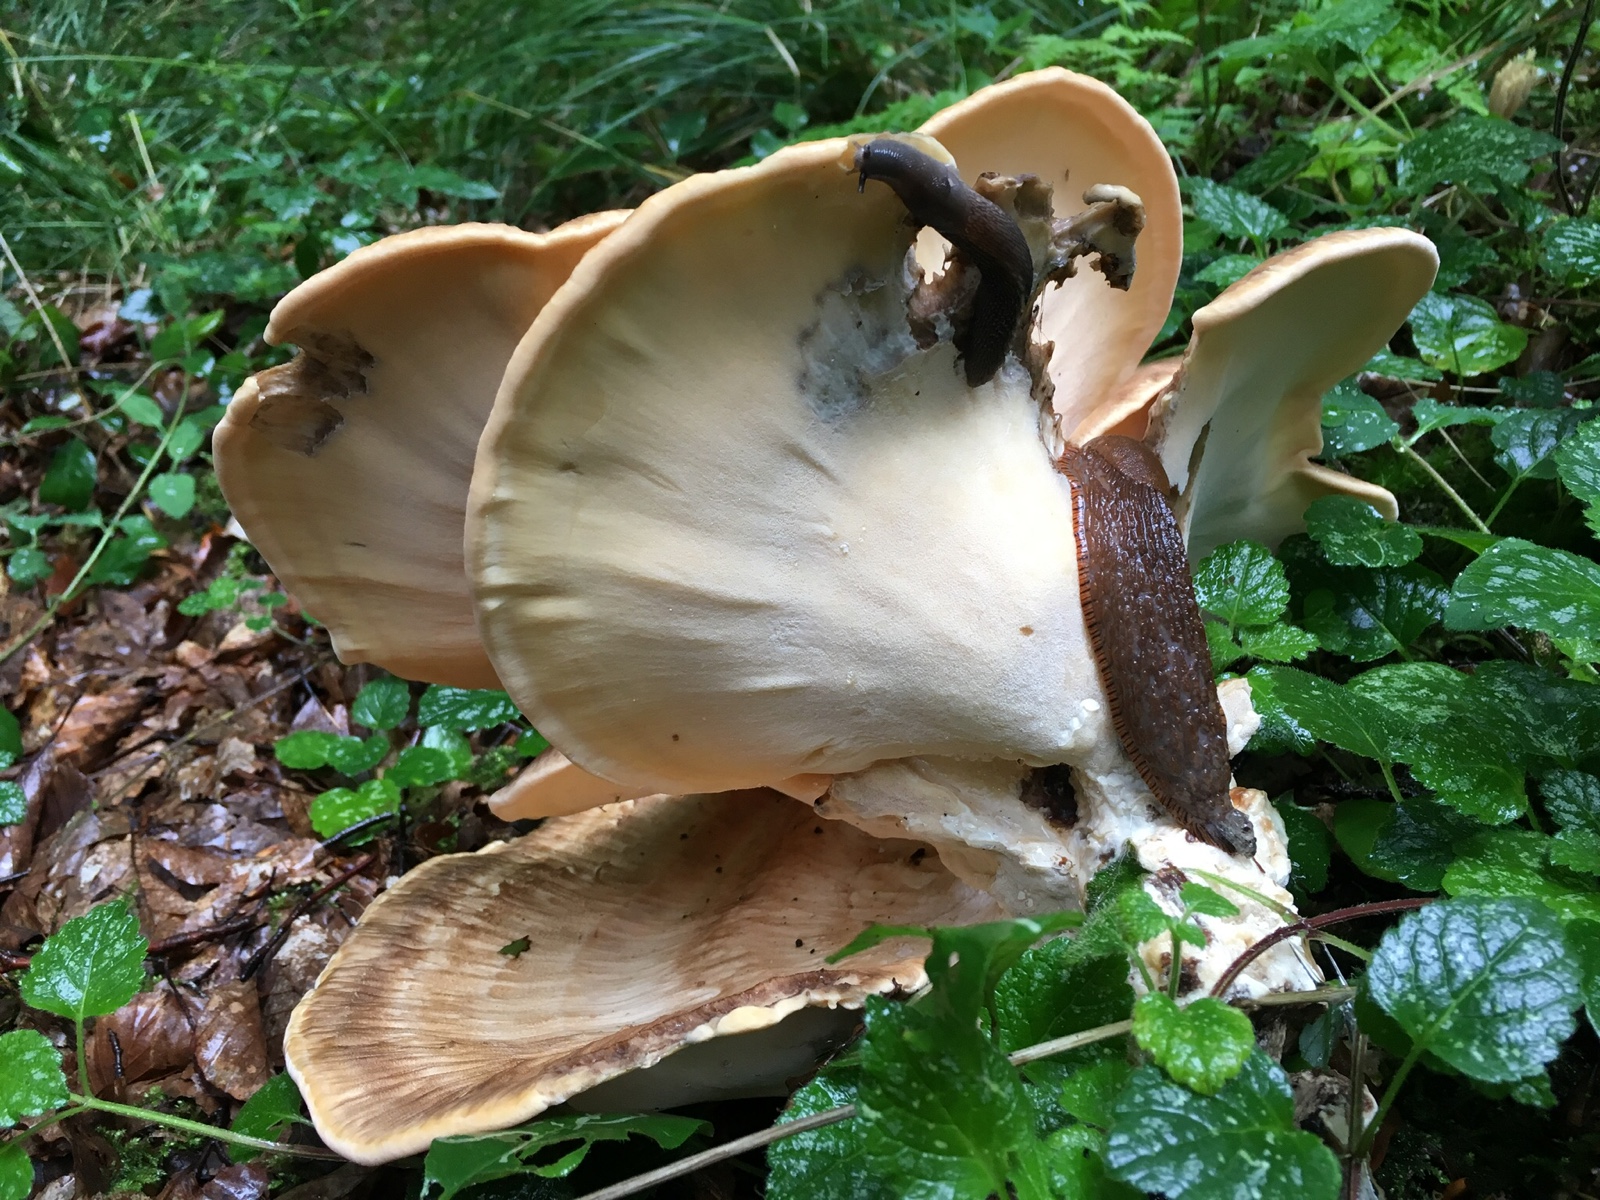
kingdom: Fungi
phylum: Basidiomycota
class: Agaricomycetes
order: Polyporales
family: Meripilaceae
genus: Meripilus
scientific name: Meripilus giganteus
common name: kæmpeporesvamp
